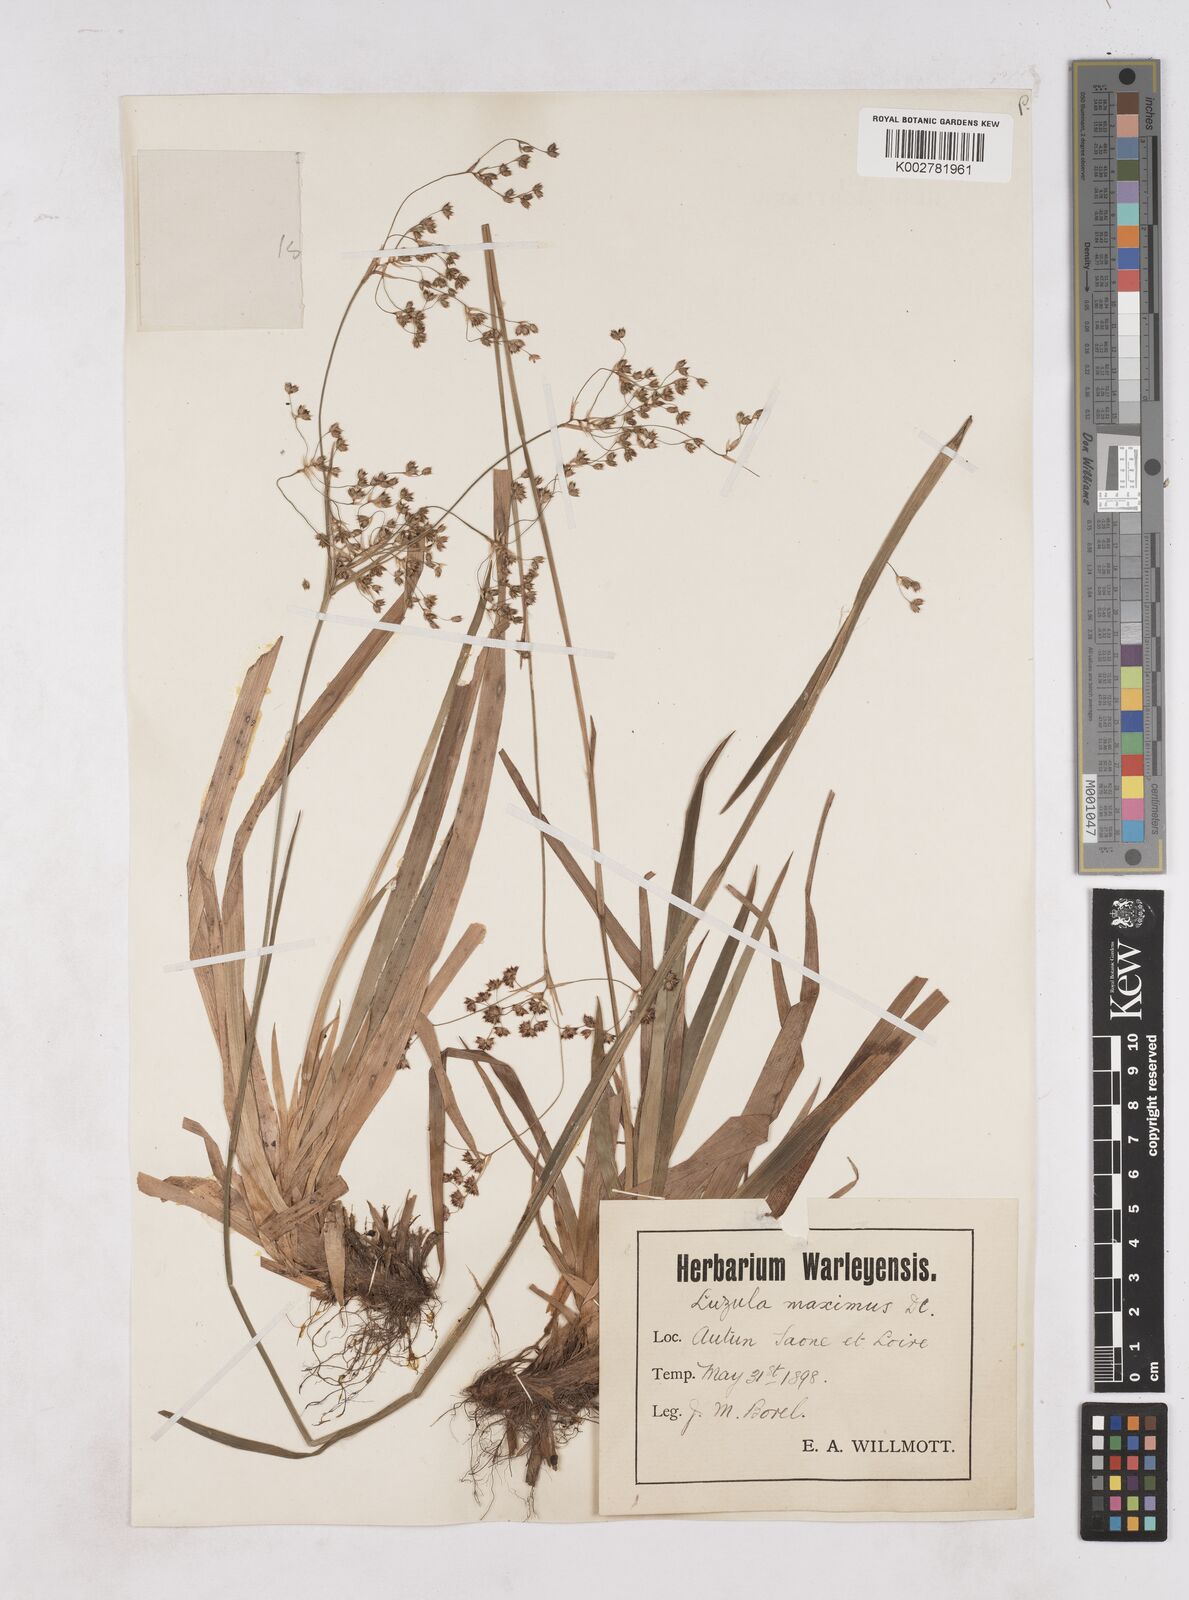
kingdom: Plantae
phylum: Tracheophyta
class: Liliopsida
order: Poales
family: Juncaceae
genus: Luzula
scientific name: Luzula sylvatica
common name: Great wood-rush
